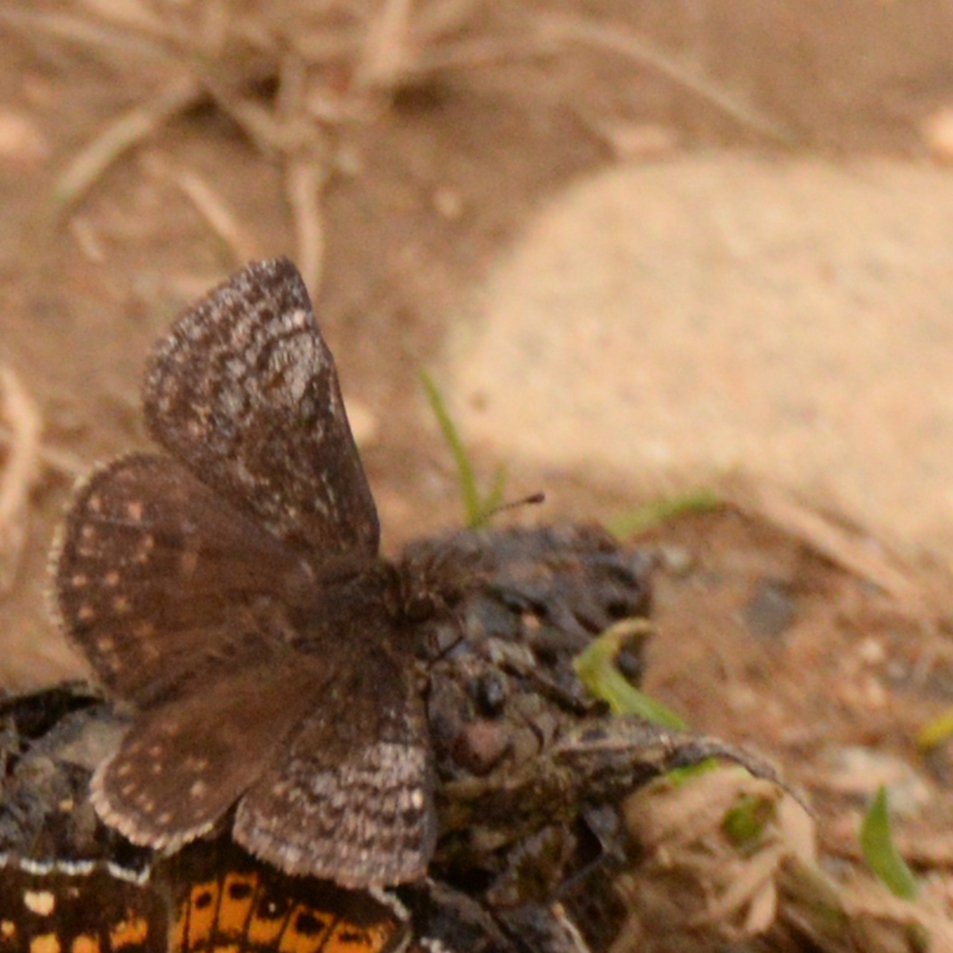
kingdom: Animalia
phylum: Arthropoda
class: Insecta
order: Lepidoptera
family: Hesperiidae
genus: Erynnis
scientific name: Erynnis icelus
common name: Dreamy Duskywing
